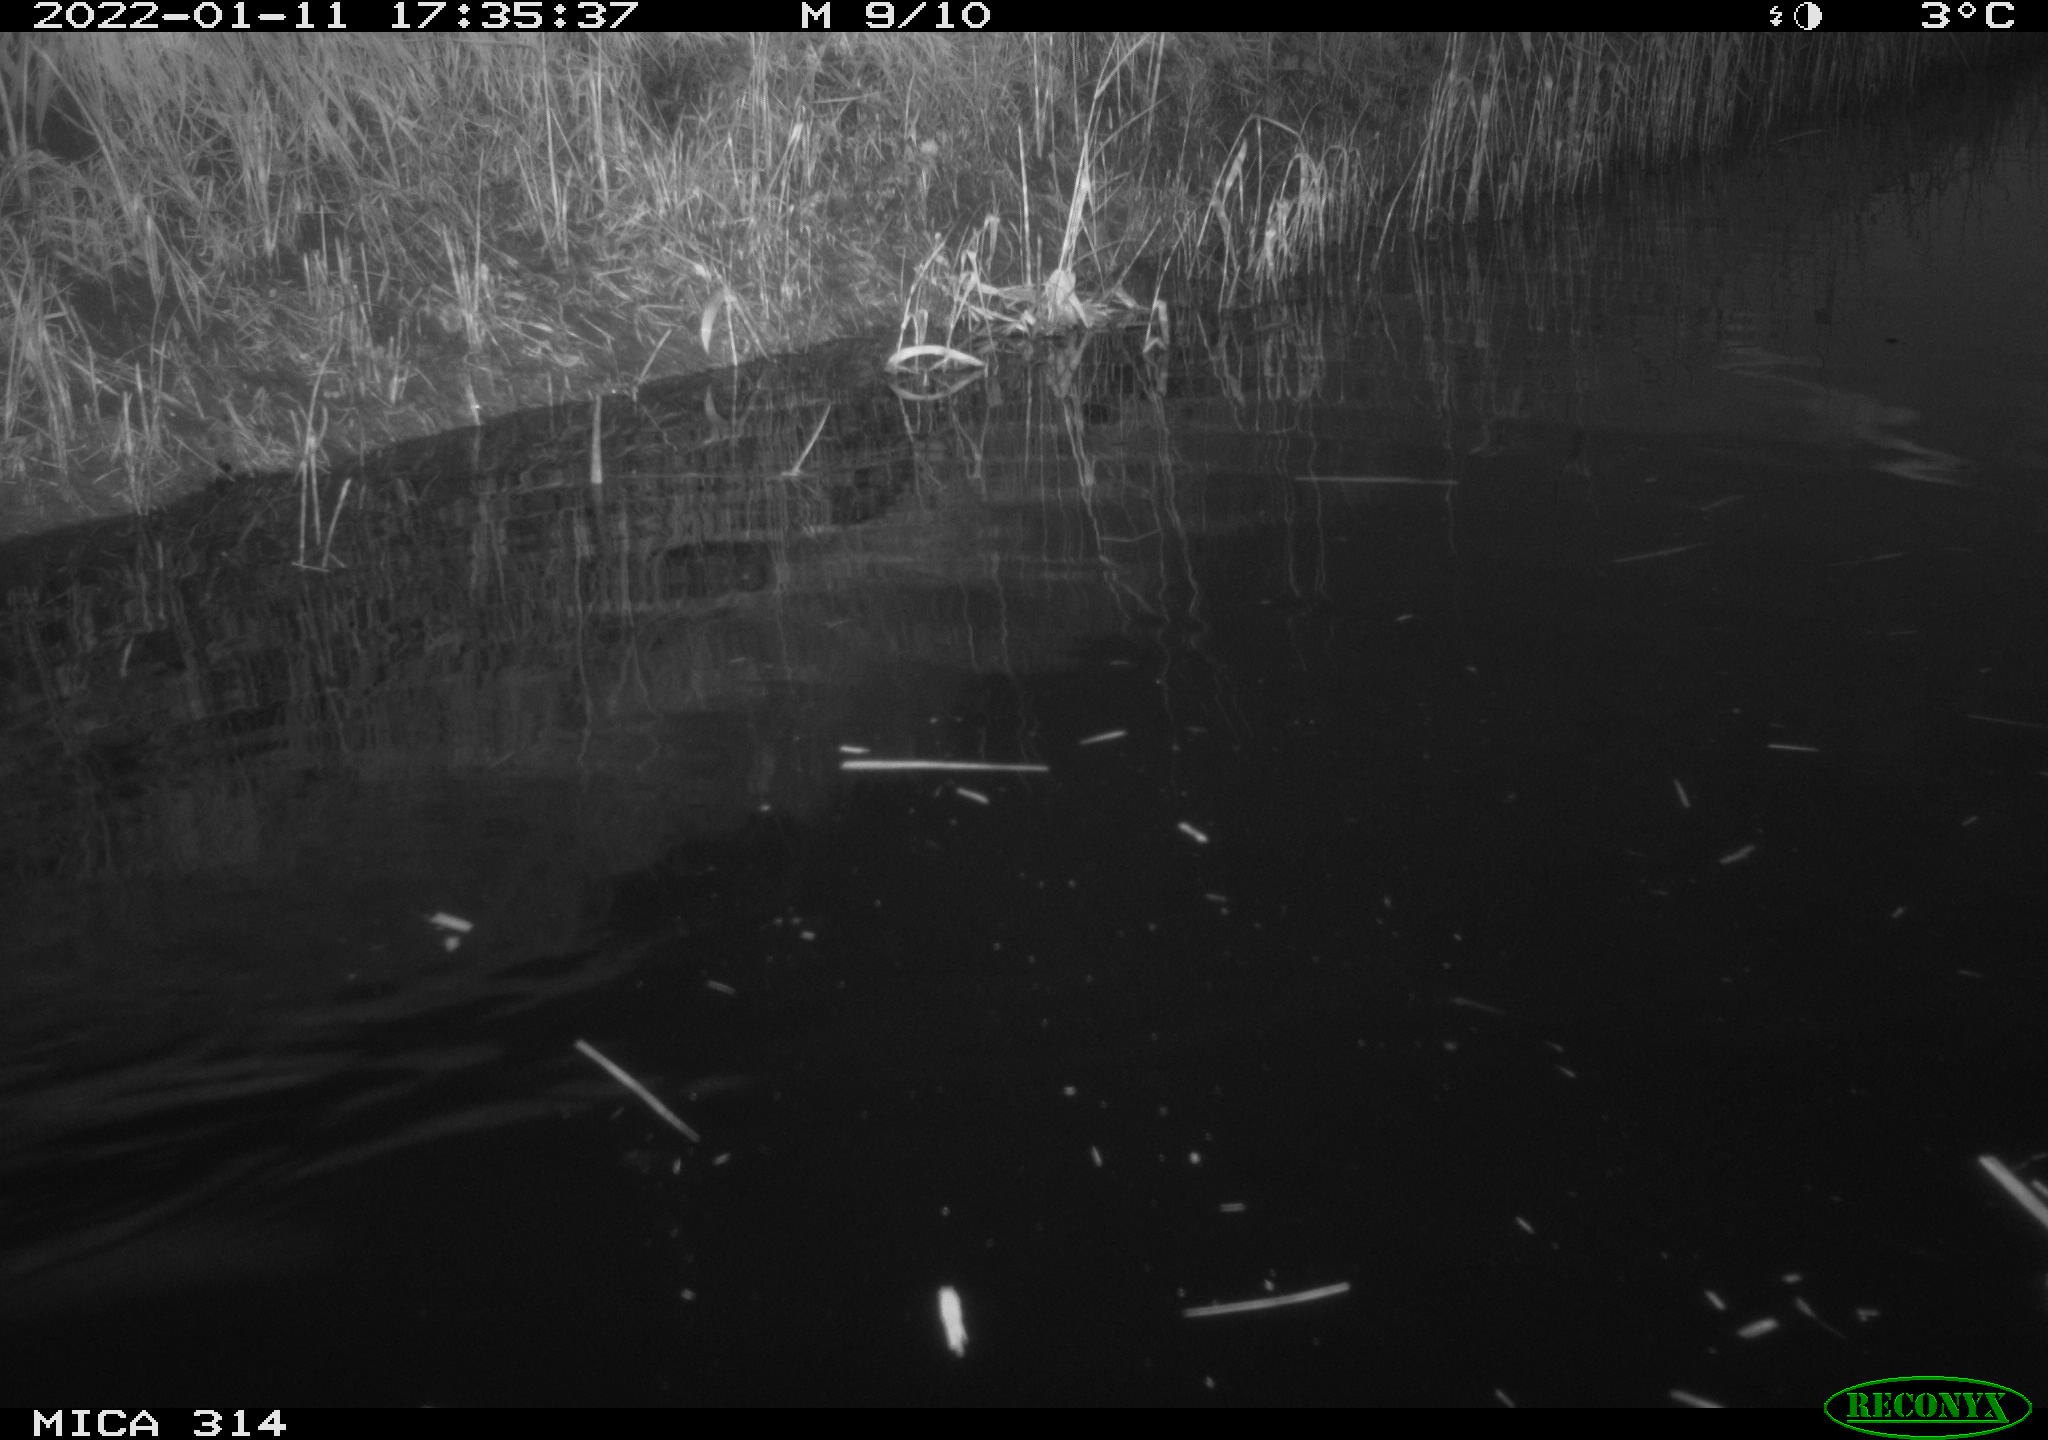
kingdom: Animalia
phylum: Chordata
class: Aves
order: Gruiformes
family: Rallidae
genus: Gallinula
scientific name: Gallinula chloropus
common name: Common moorhen
